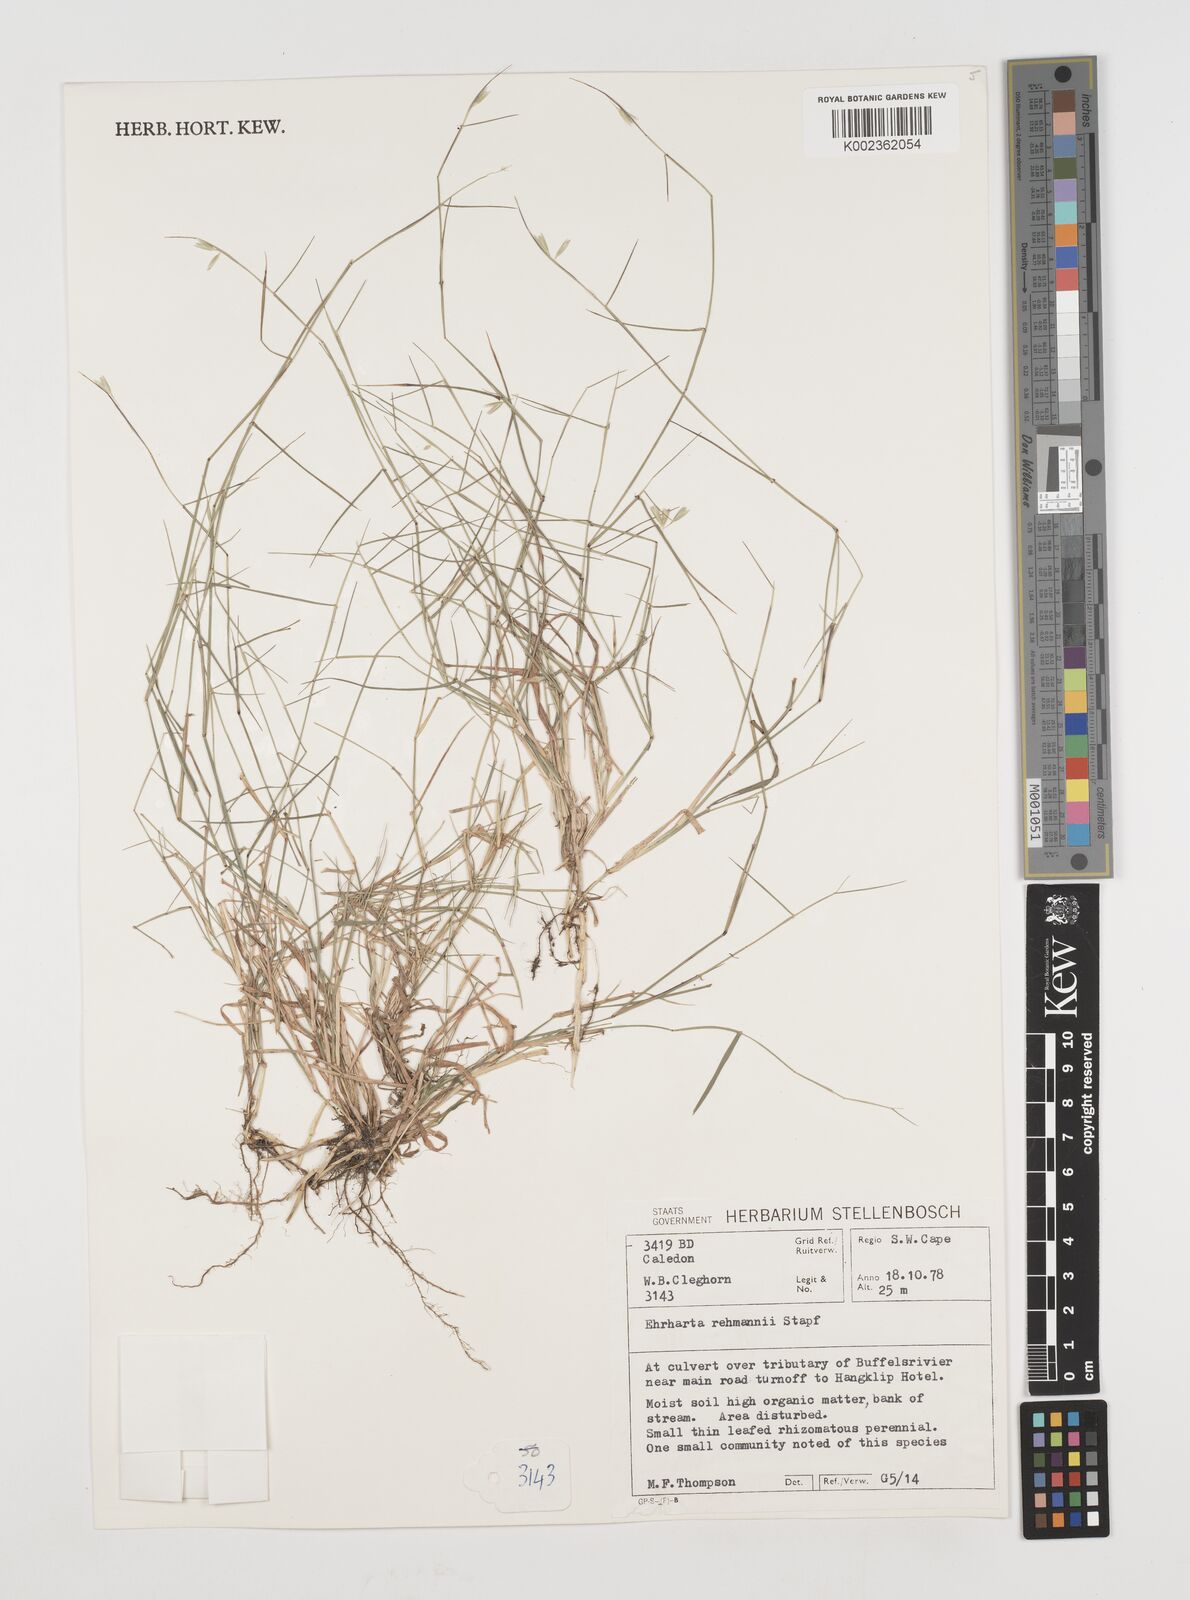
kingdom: Plantae
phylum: Tracheophyta
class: Liliopsida
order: Poales
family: Poaceae
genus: Ehrharta
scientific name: Ehrharta rehmannii
